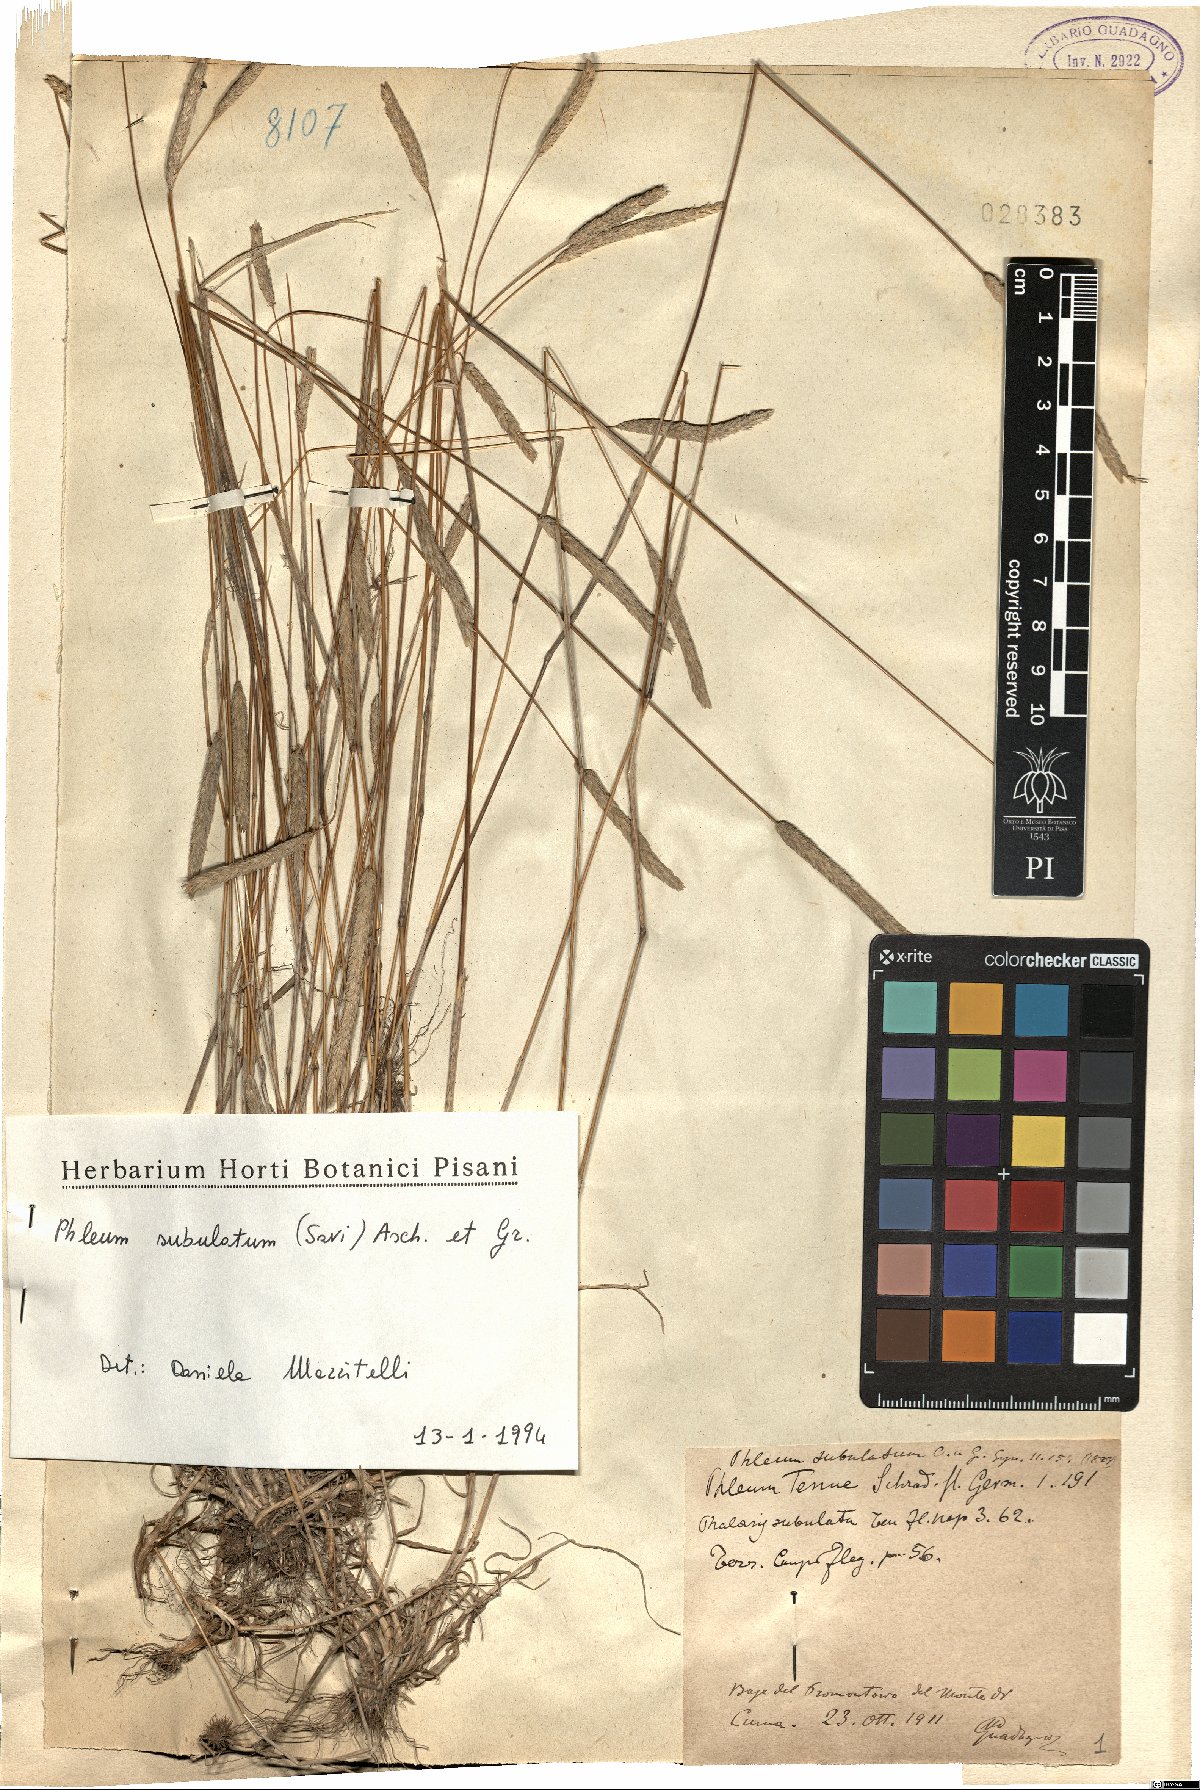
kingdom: Plantae
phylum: Tracheophyta
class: Liliopsida
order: Poales
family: Poaceae
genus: Phleum
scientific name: Phleum subulatum
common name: Italian timothy
